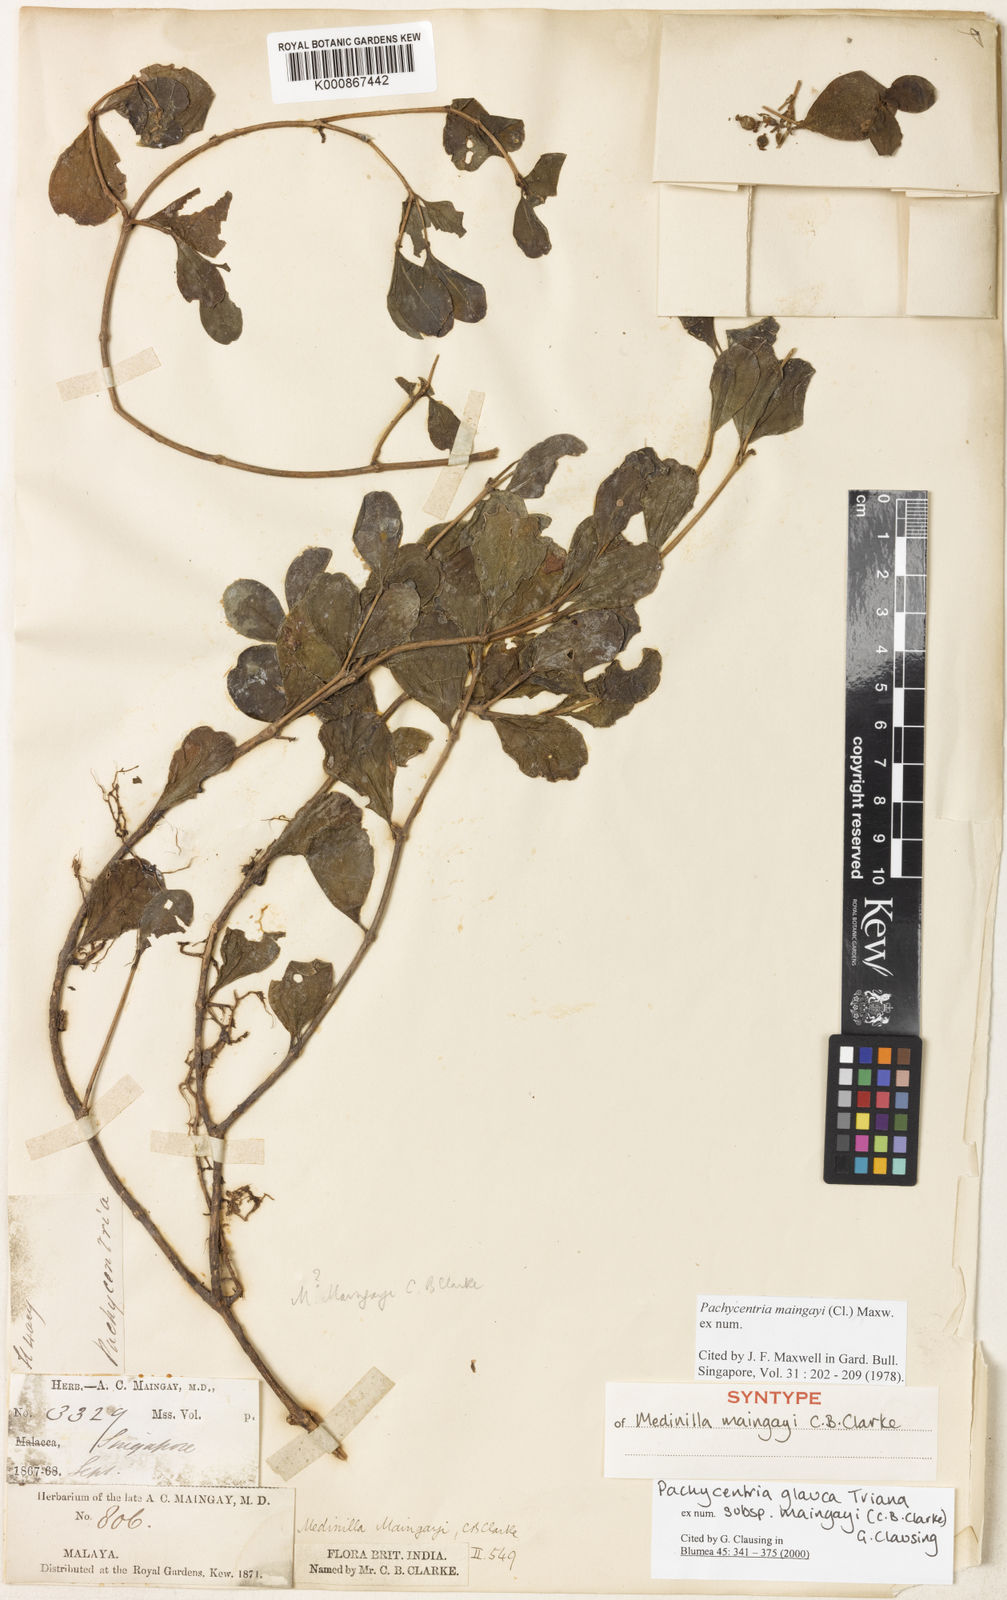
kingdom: Plantae
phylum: Tracheophyta
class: Magnoliopsida
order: Myrtales
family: Melastomataceae
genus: Pachycentria
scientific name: Pachycentria glauca
